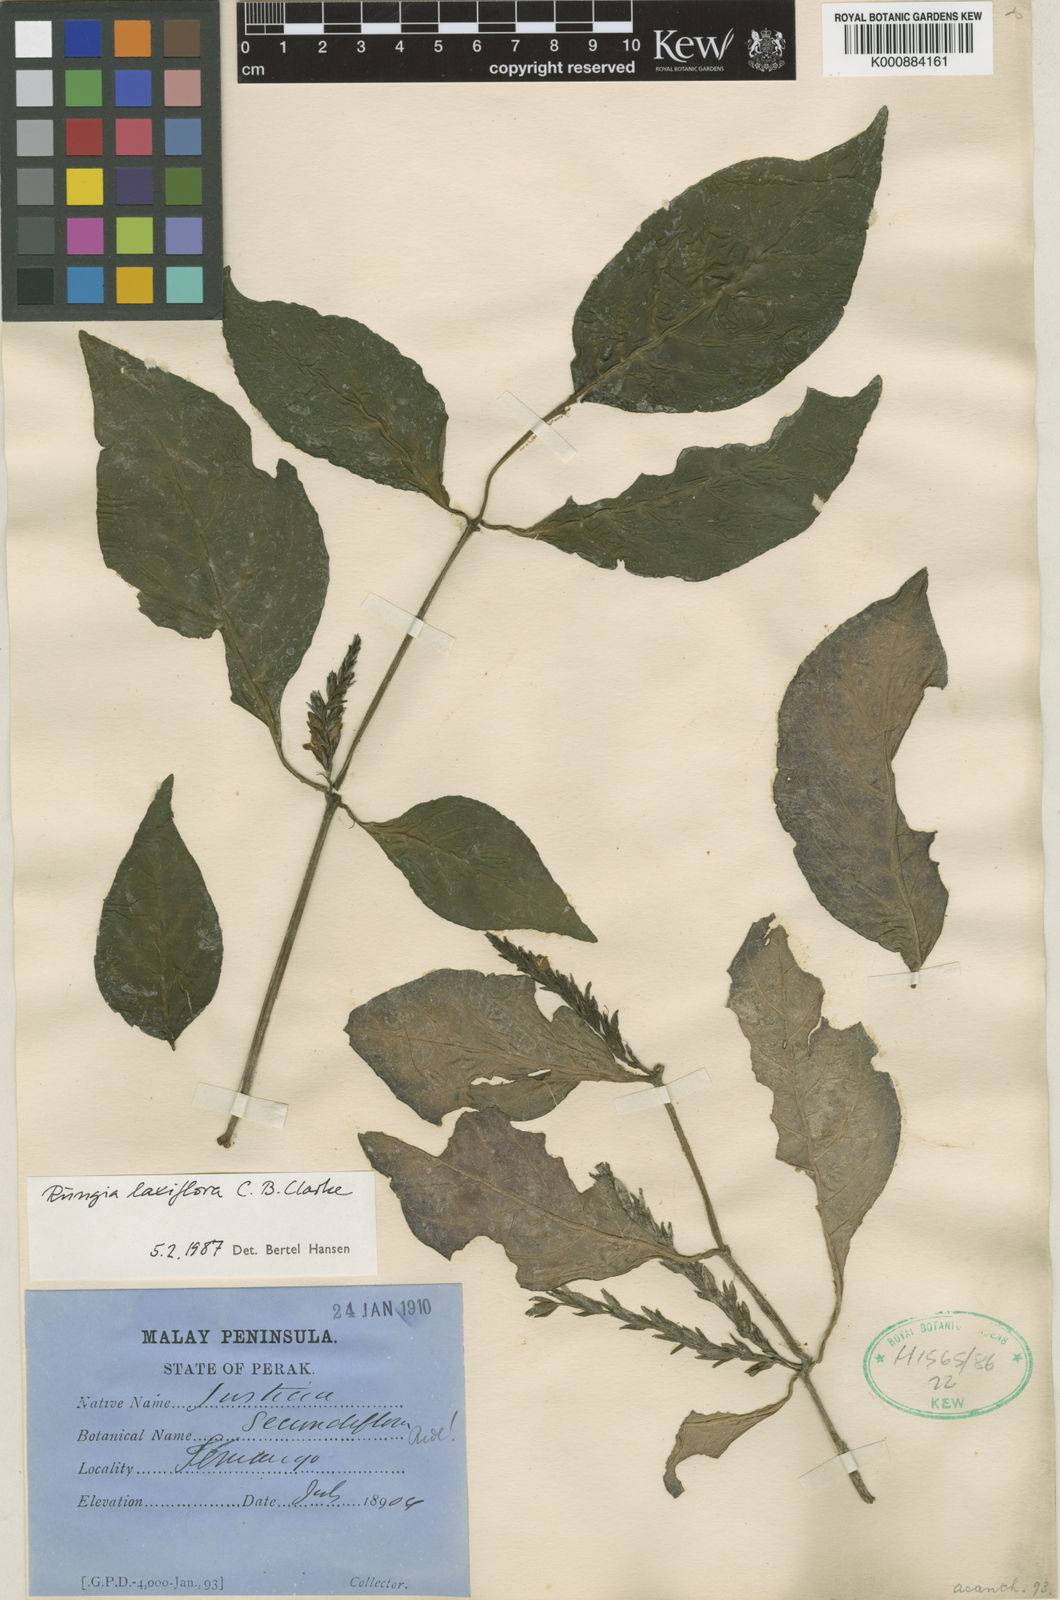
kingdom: Plantae
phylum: Tracheophyta
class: Magnoliopsida
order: Lamiales
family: Acanthaceae
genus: Haplanthus
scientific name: Haplanthus laxiflorus
